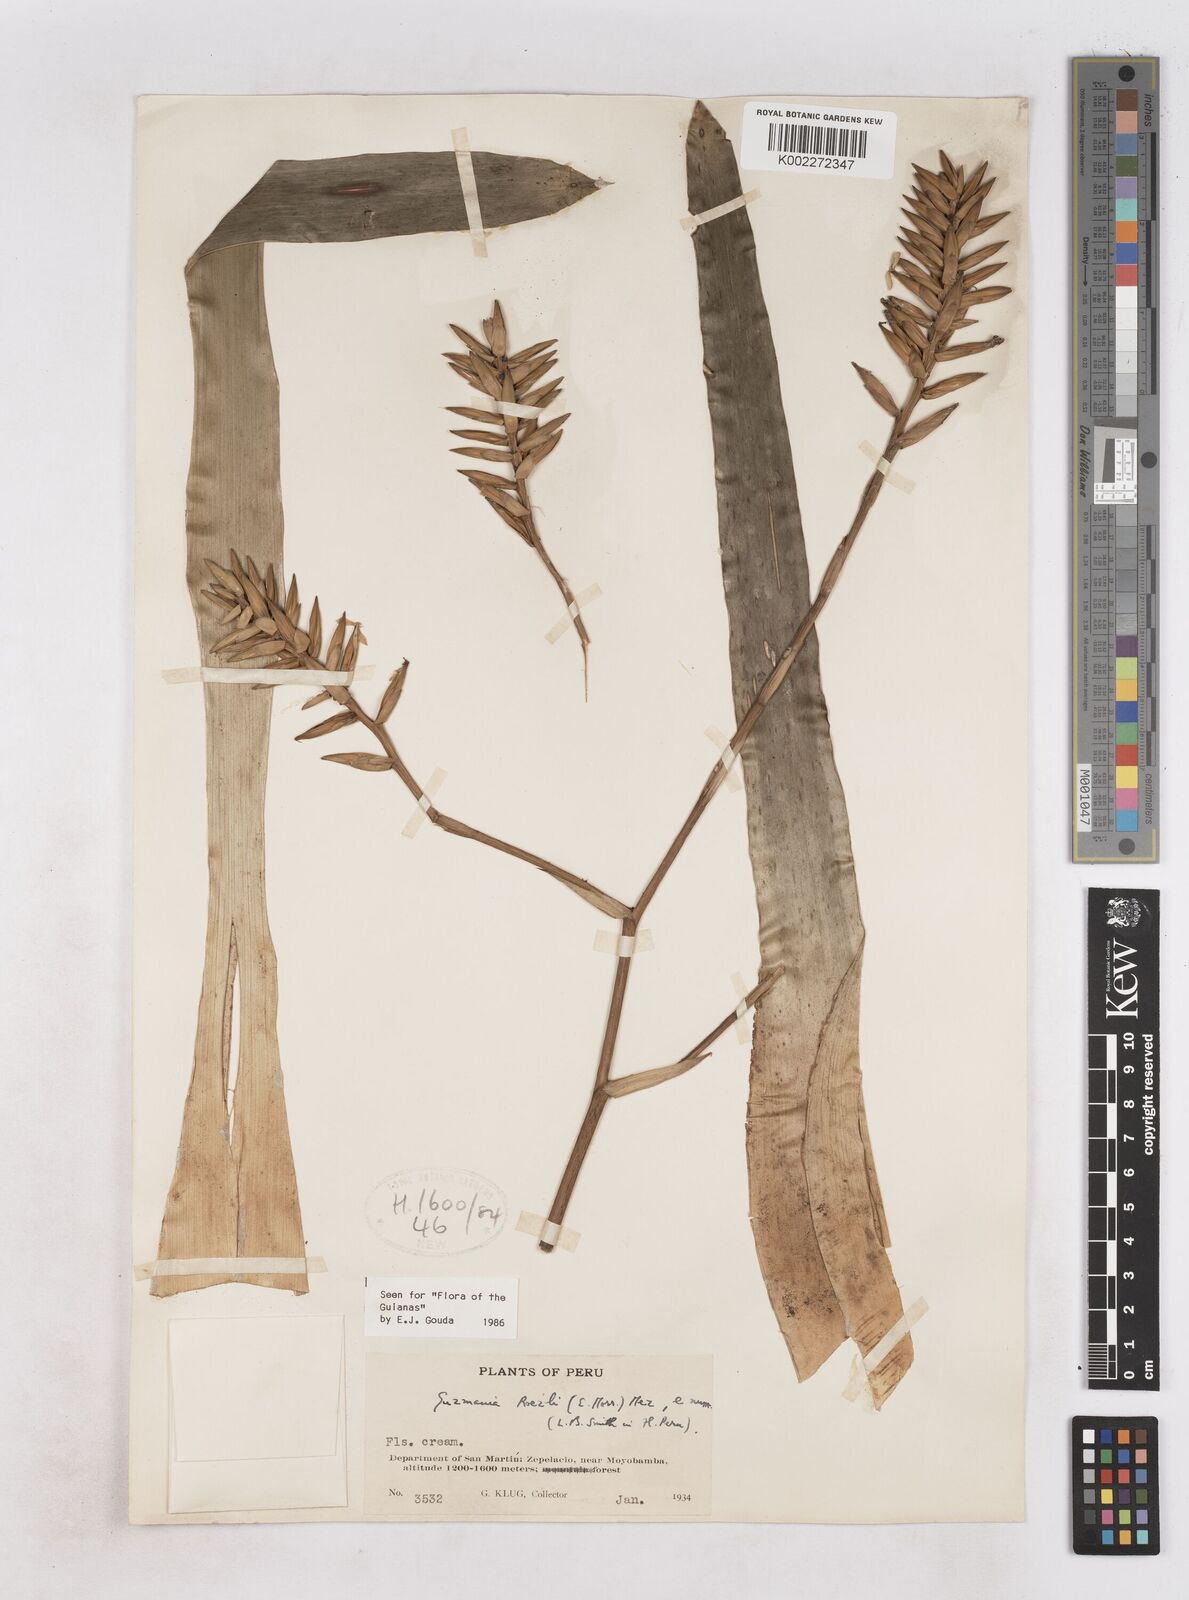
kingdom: Plantae
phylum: Tracheophyta
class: Liliopsida
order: Poales
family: Bromeliaceae
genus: Guzmania
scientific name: Guzmania roezlii
